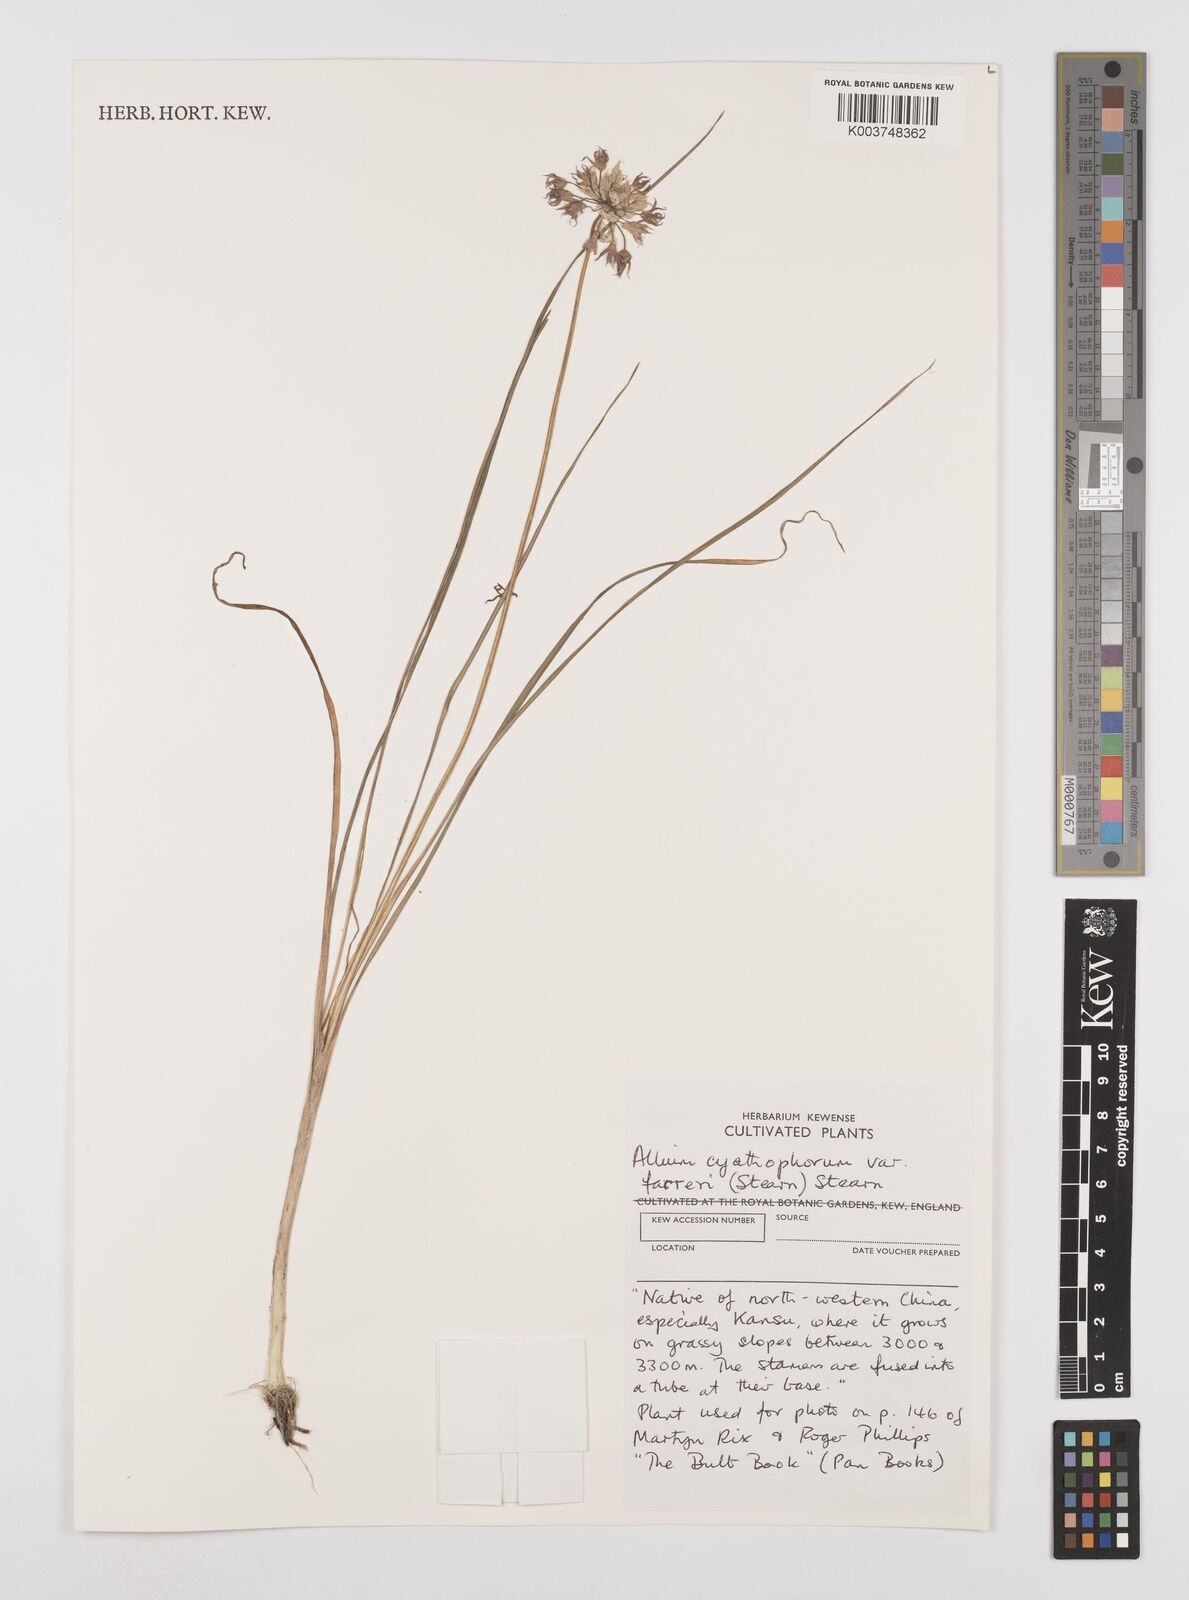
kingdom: Plantae
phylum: Tracheophyta
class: Liliopsida
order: Asparagales
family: Amaryllidaceae
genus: Allium
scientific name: Allium farreri
